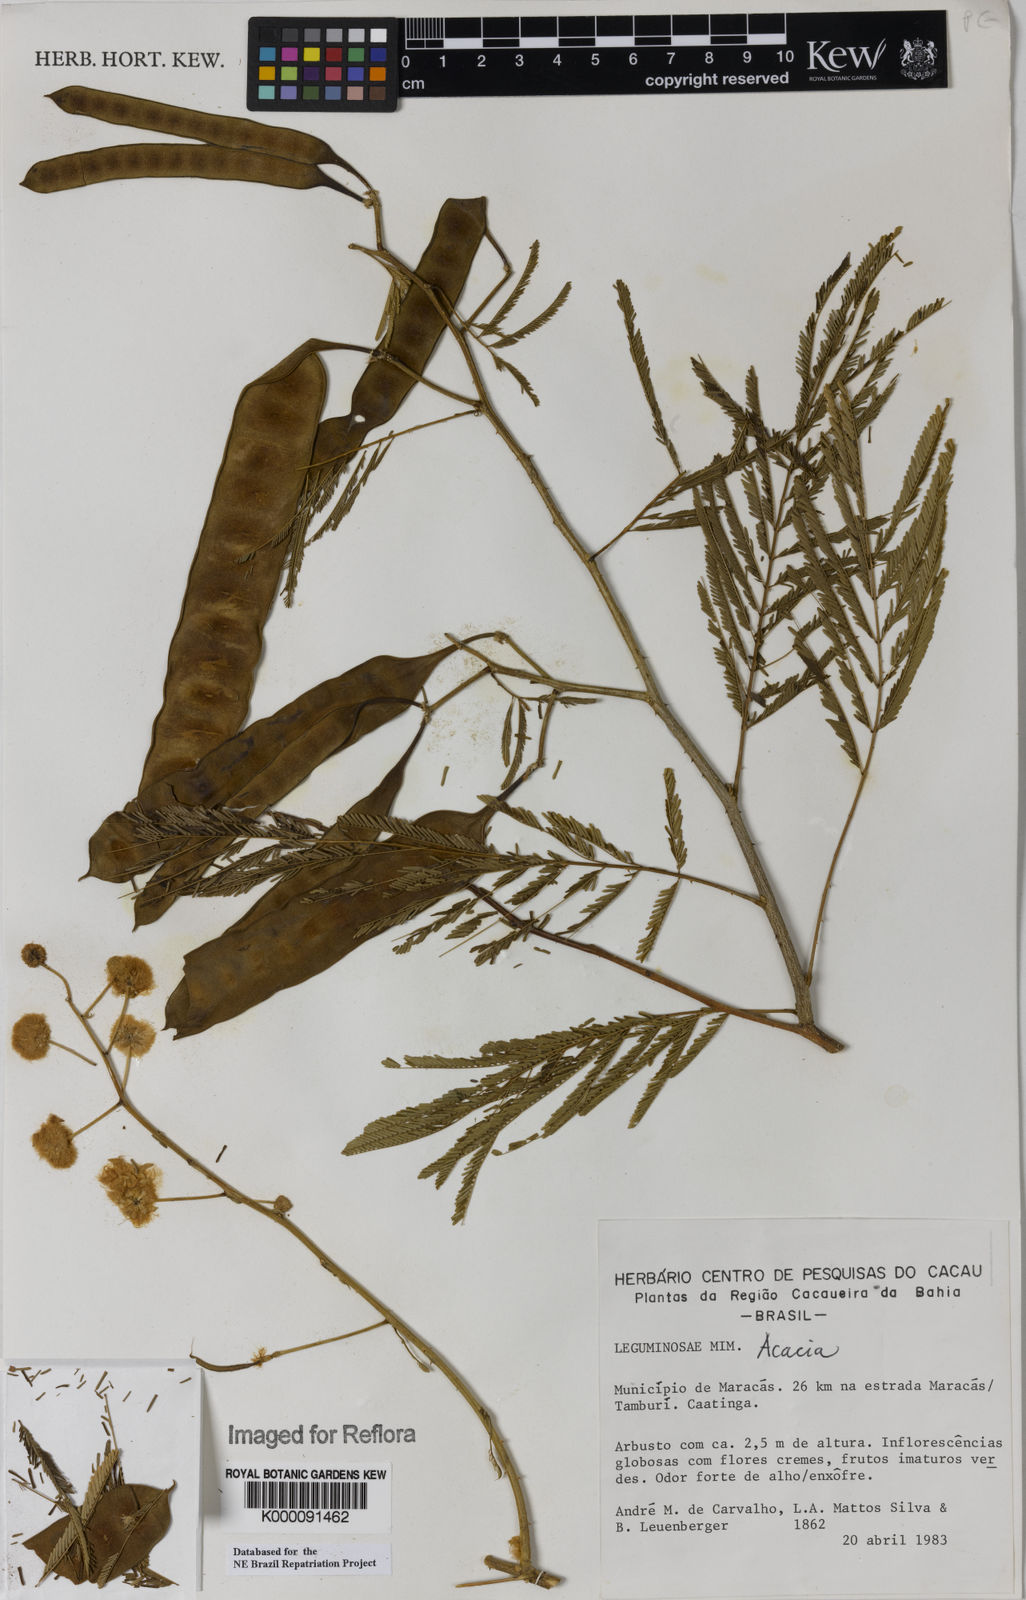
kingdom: Plantae
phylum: Tracheophyta
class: Magnoliopsida
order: Fabales
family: Fabaceae
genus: Acacia
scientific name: Acacia
